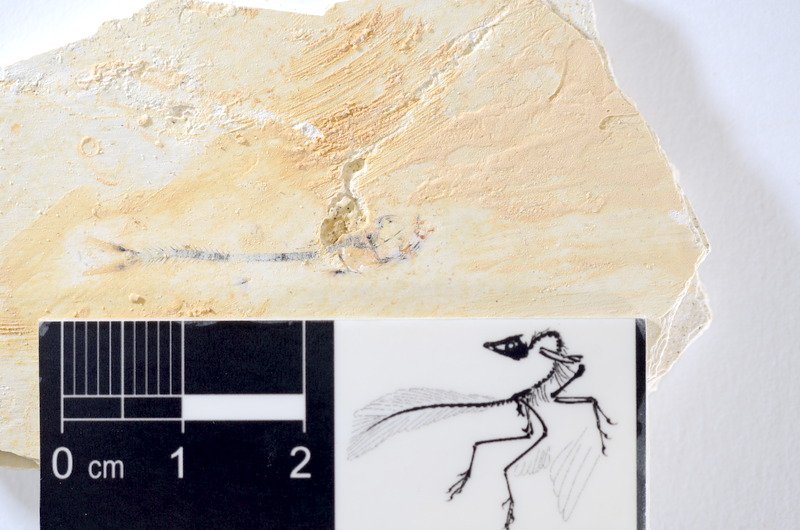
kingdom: Animalia
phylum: Chordata
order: Salmoniformes
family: Orthogonikleithridae
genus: Orthogonikleithrus
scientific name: Orthogonikleithrus hoelli
